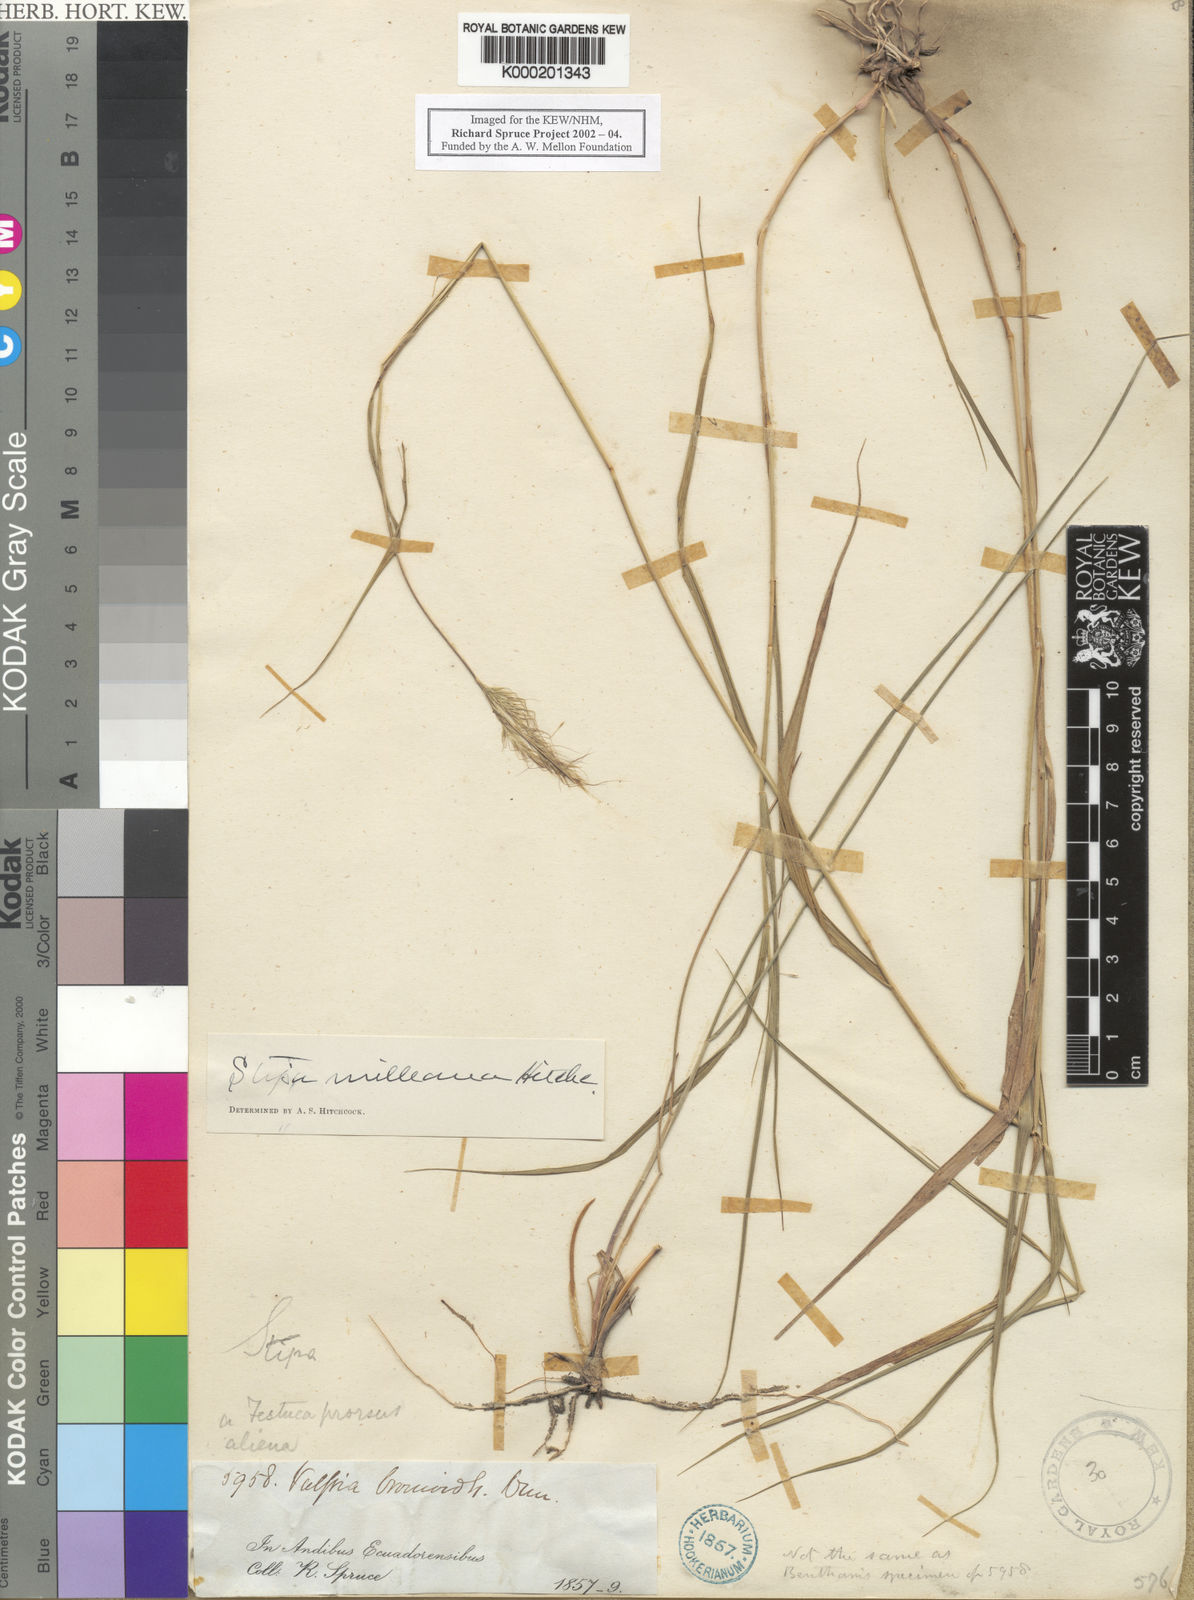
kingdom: Plantae
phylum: Tracheophyta
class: Liliopsida
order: Poales
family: Poaceae
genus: Stipa
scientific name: Stipa milleana
